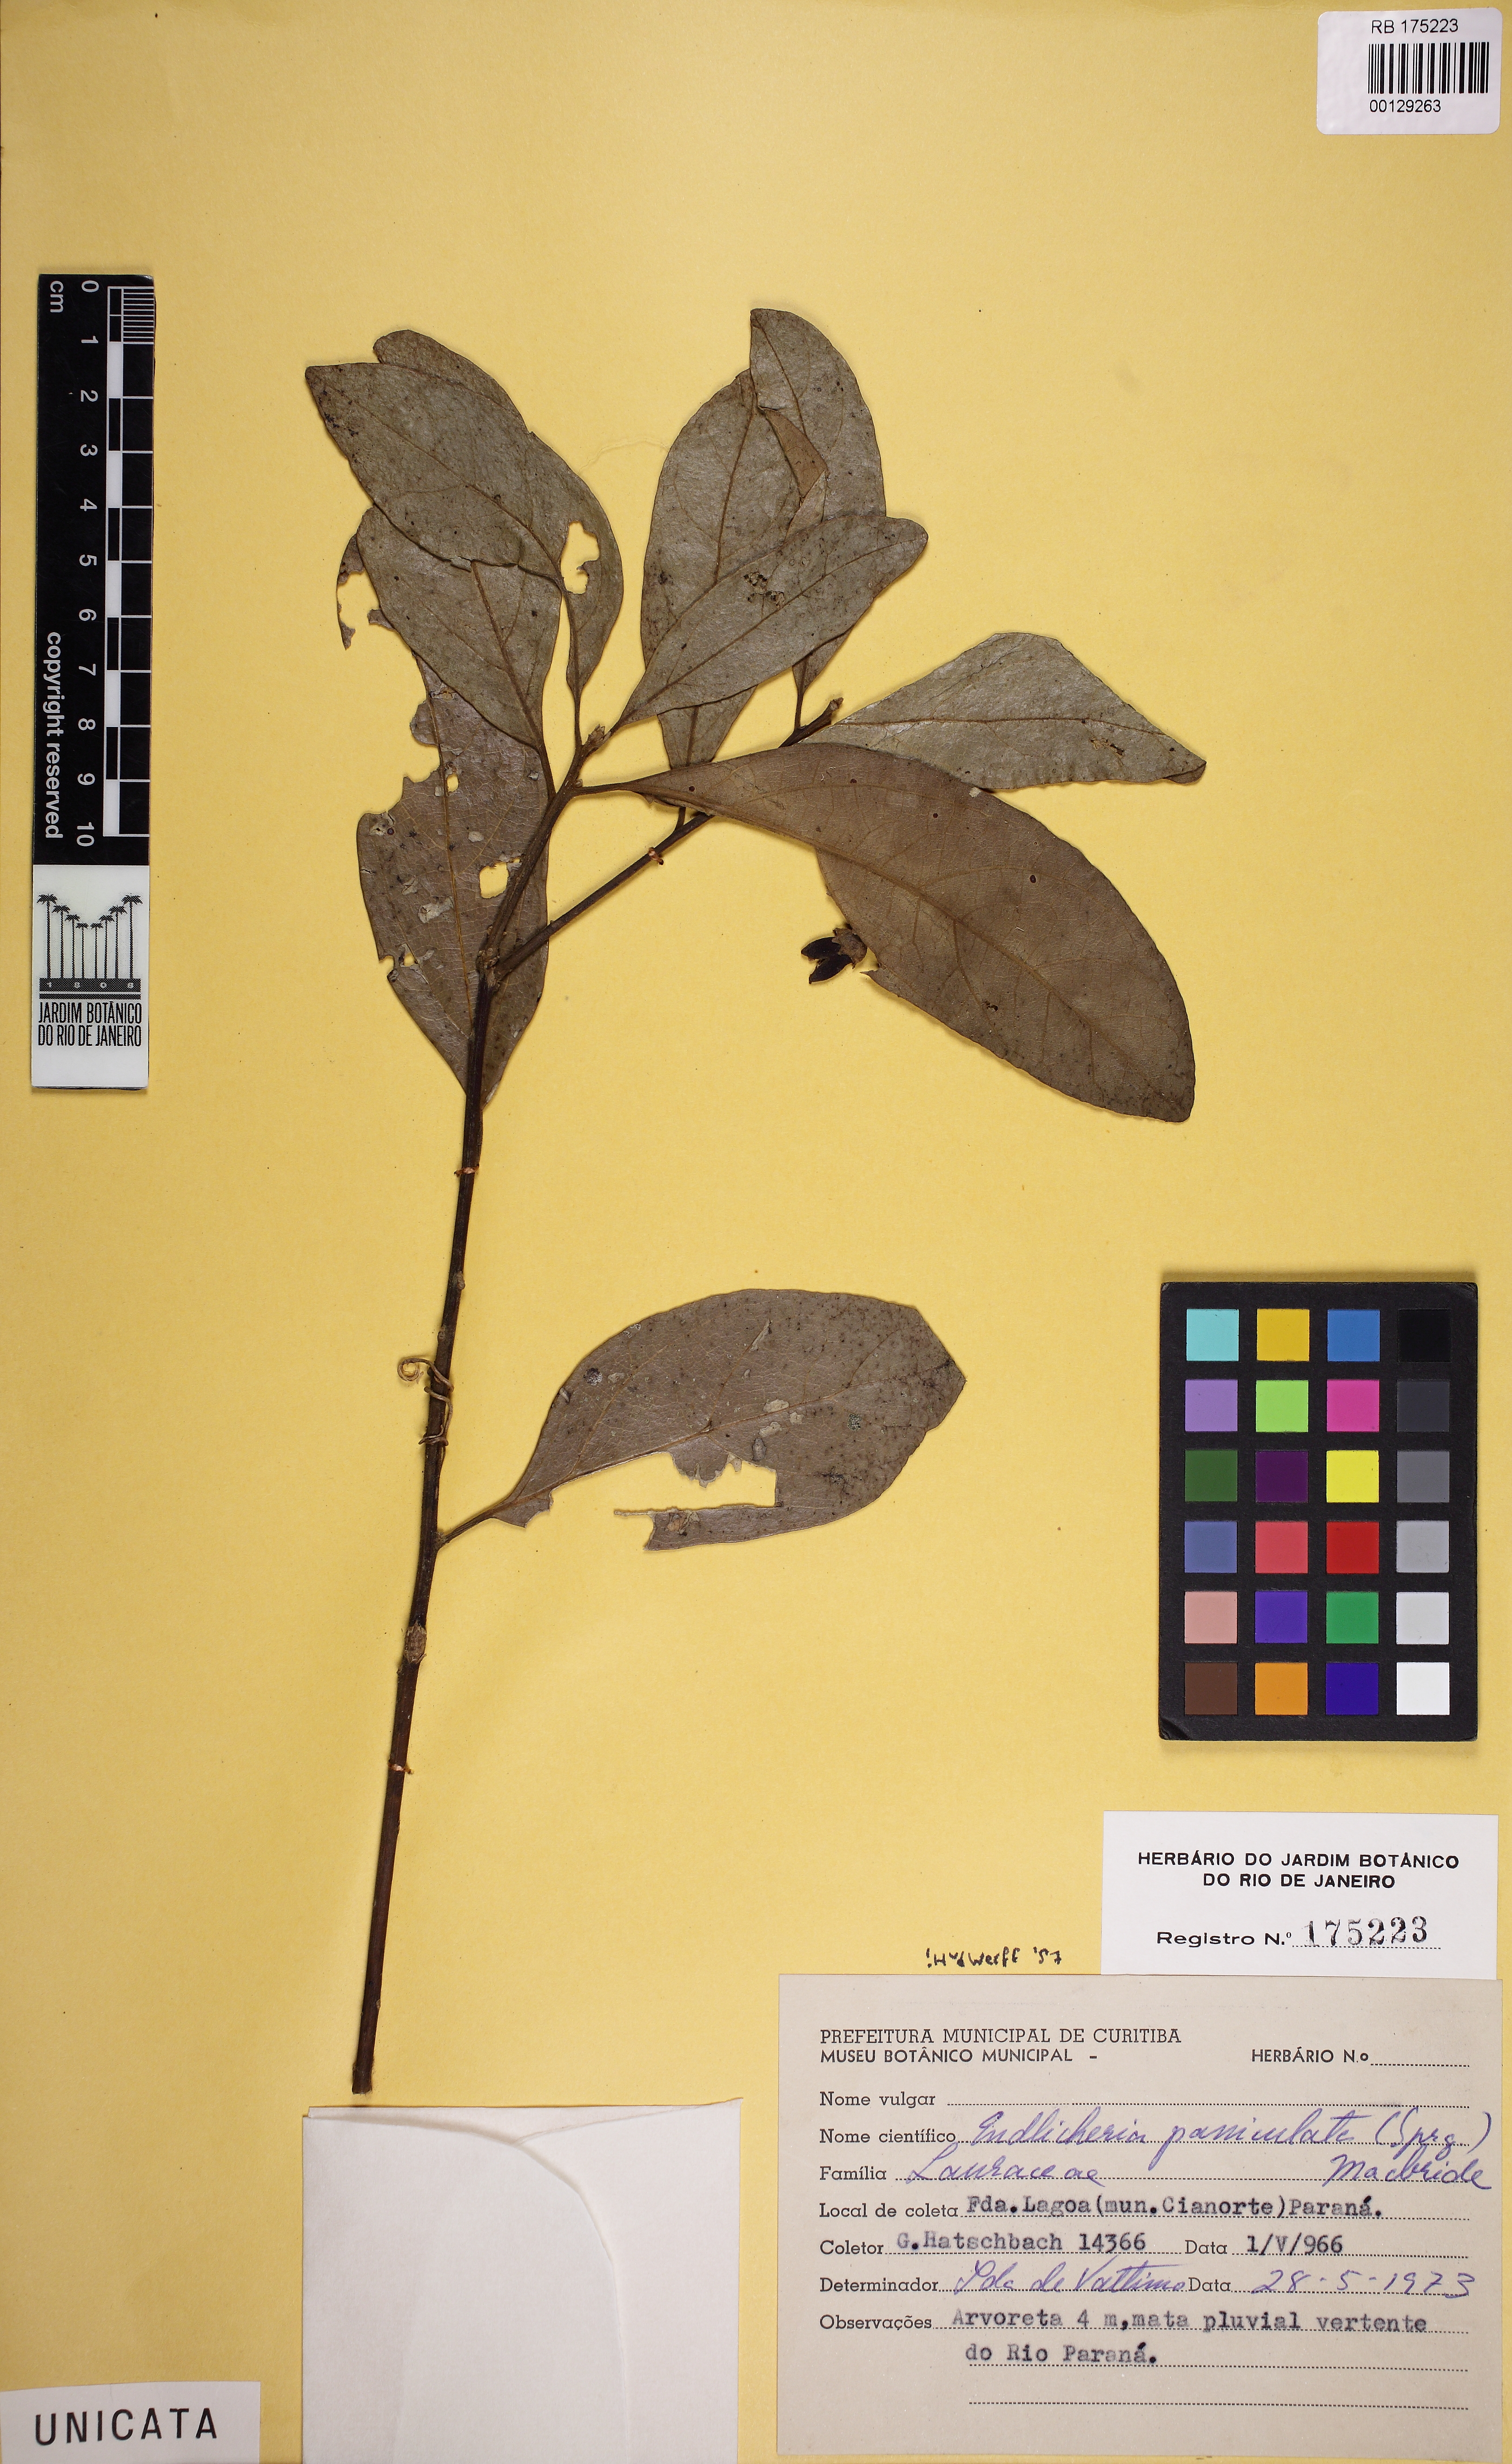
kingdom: Plantae
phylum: Tracheophyta
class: Magnoliopsida
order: Laurales
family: Lauraceae
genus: Endlicheria
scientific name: Endlicheria paniculata
